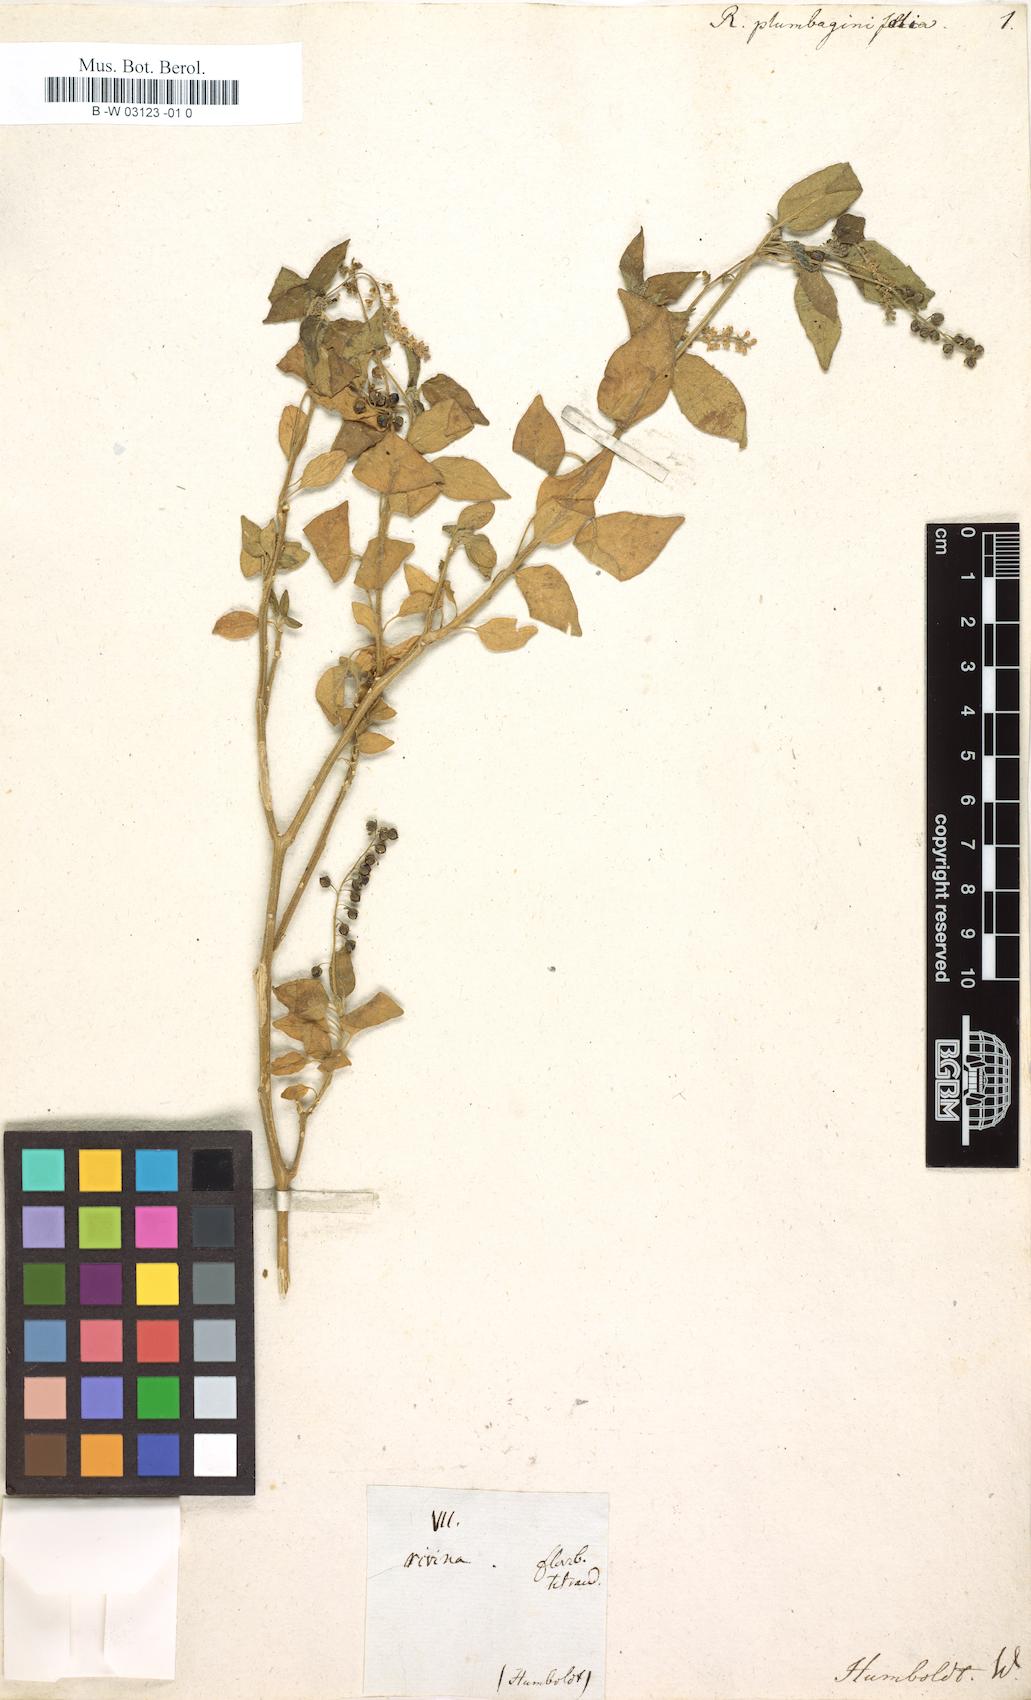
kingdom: Plantae
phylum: Tracheophyta
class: Magnoliopsida
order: Caryophyllales
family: Phytolaccaceae
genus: Rivina
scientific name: Rivina humilis
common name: Rougeplant
